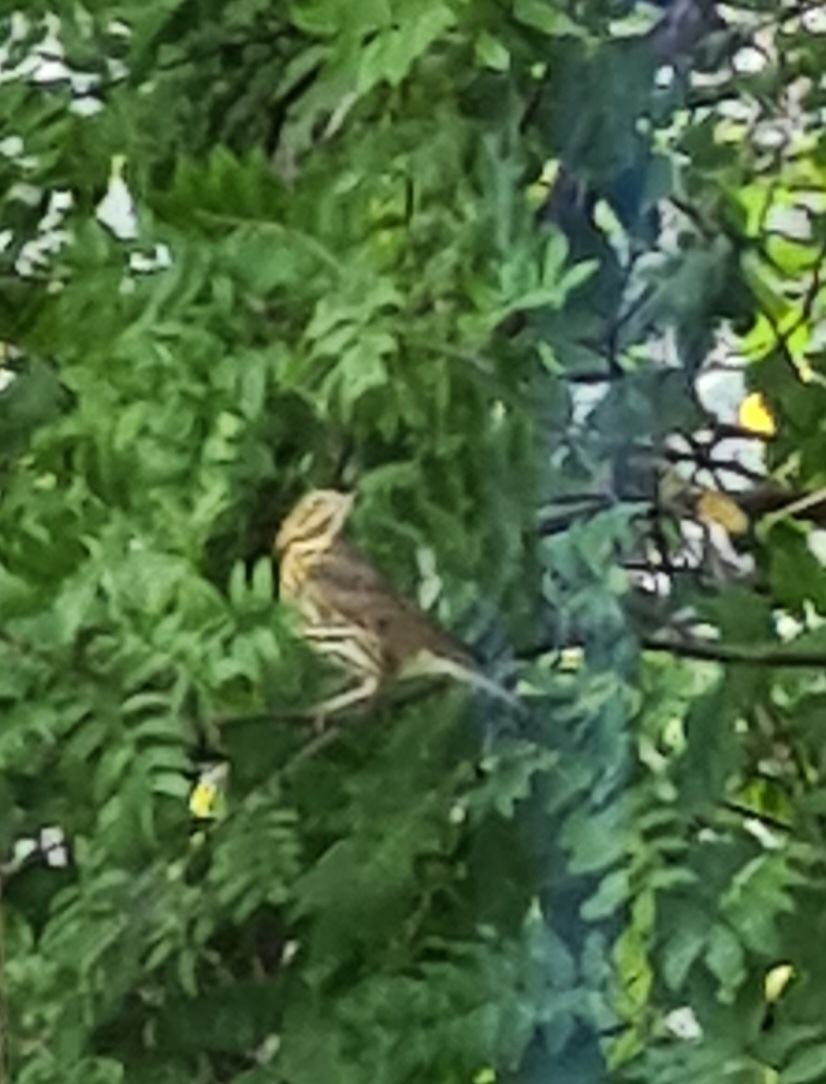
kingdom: Animalia
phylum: Chordata
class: Aves
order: Passeriformes
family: Turdidae
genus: Turdus
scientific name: Turdus philomelos
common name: Sangdrossel
